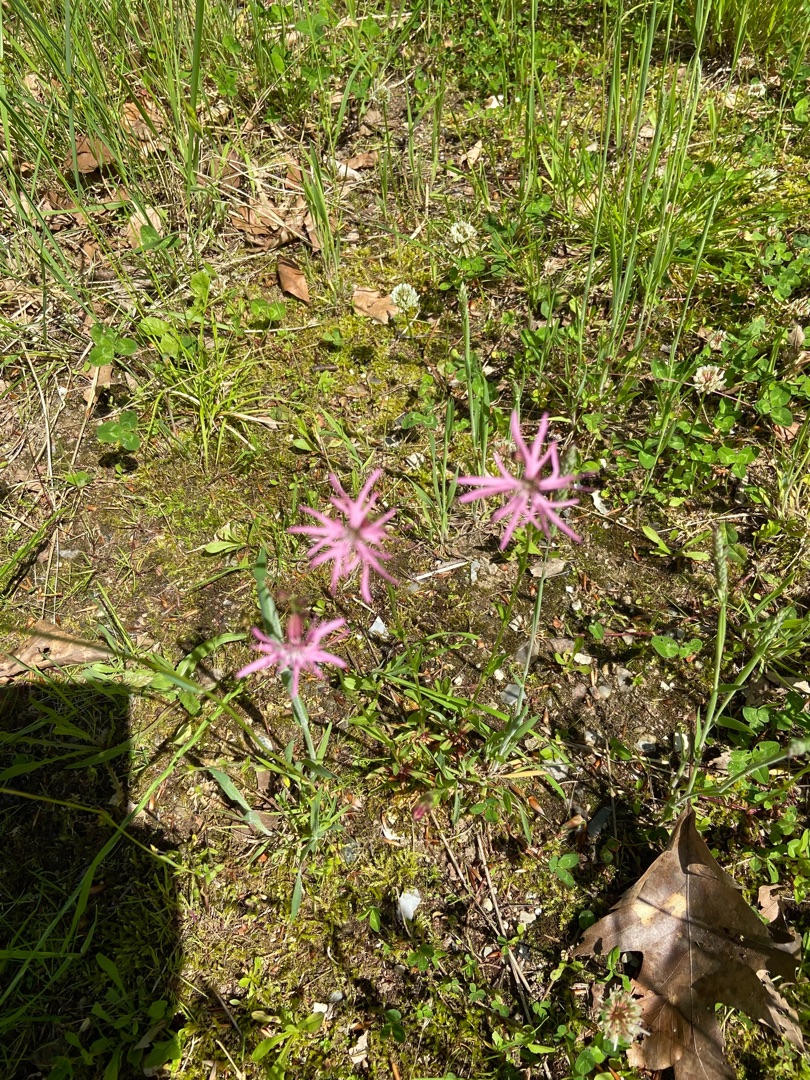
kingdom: Plantae
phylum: Tracheophyta
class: Magnoliopsida
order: Caryophyllales
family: Caryophyllaceae
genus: Silene
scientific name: Silene flos-cuculi
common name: Trævlekrone
